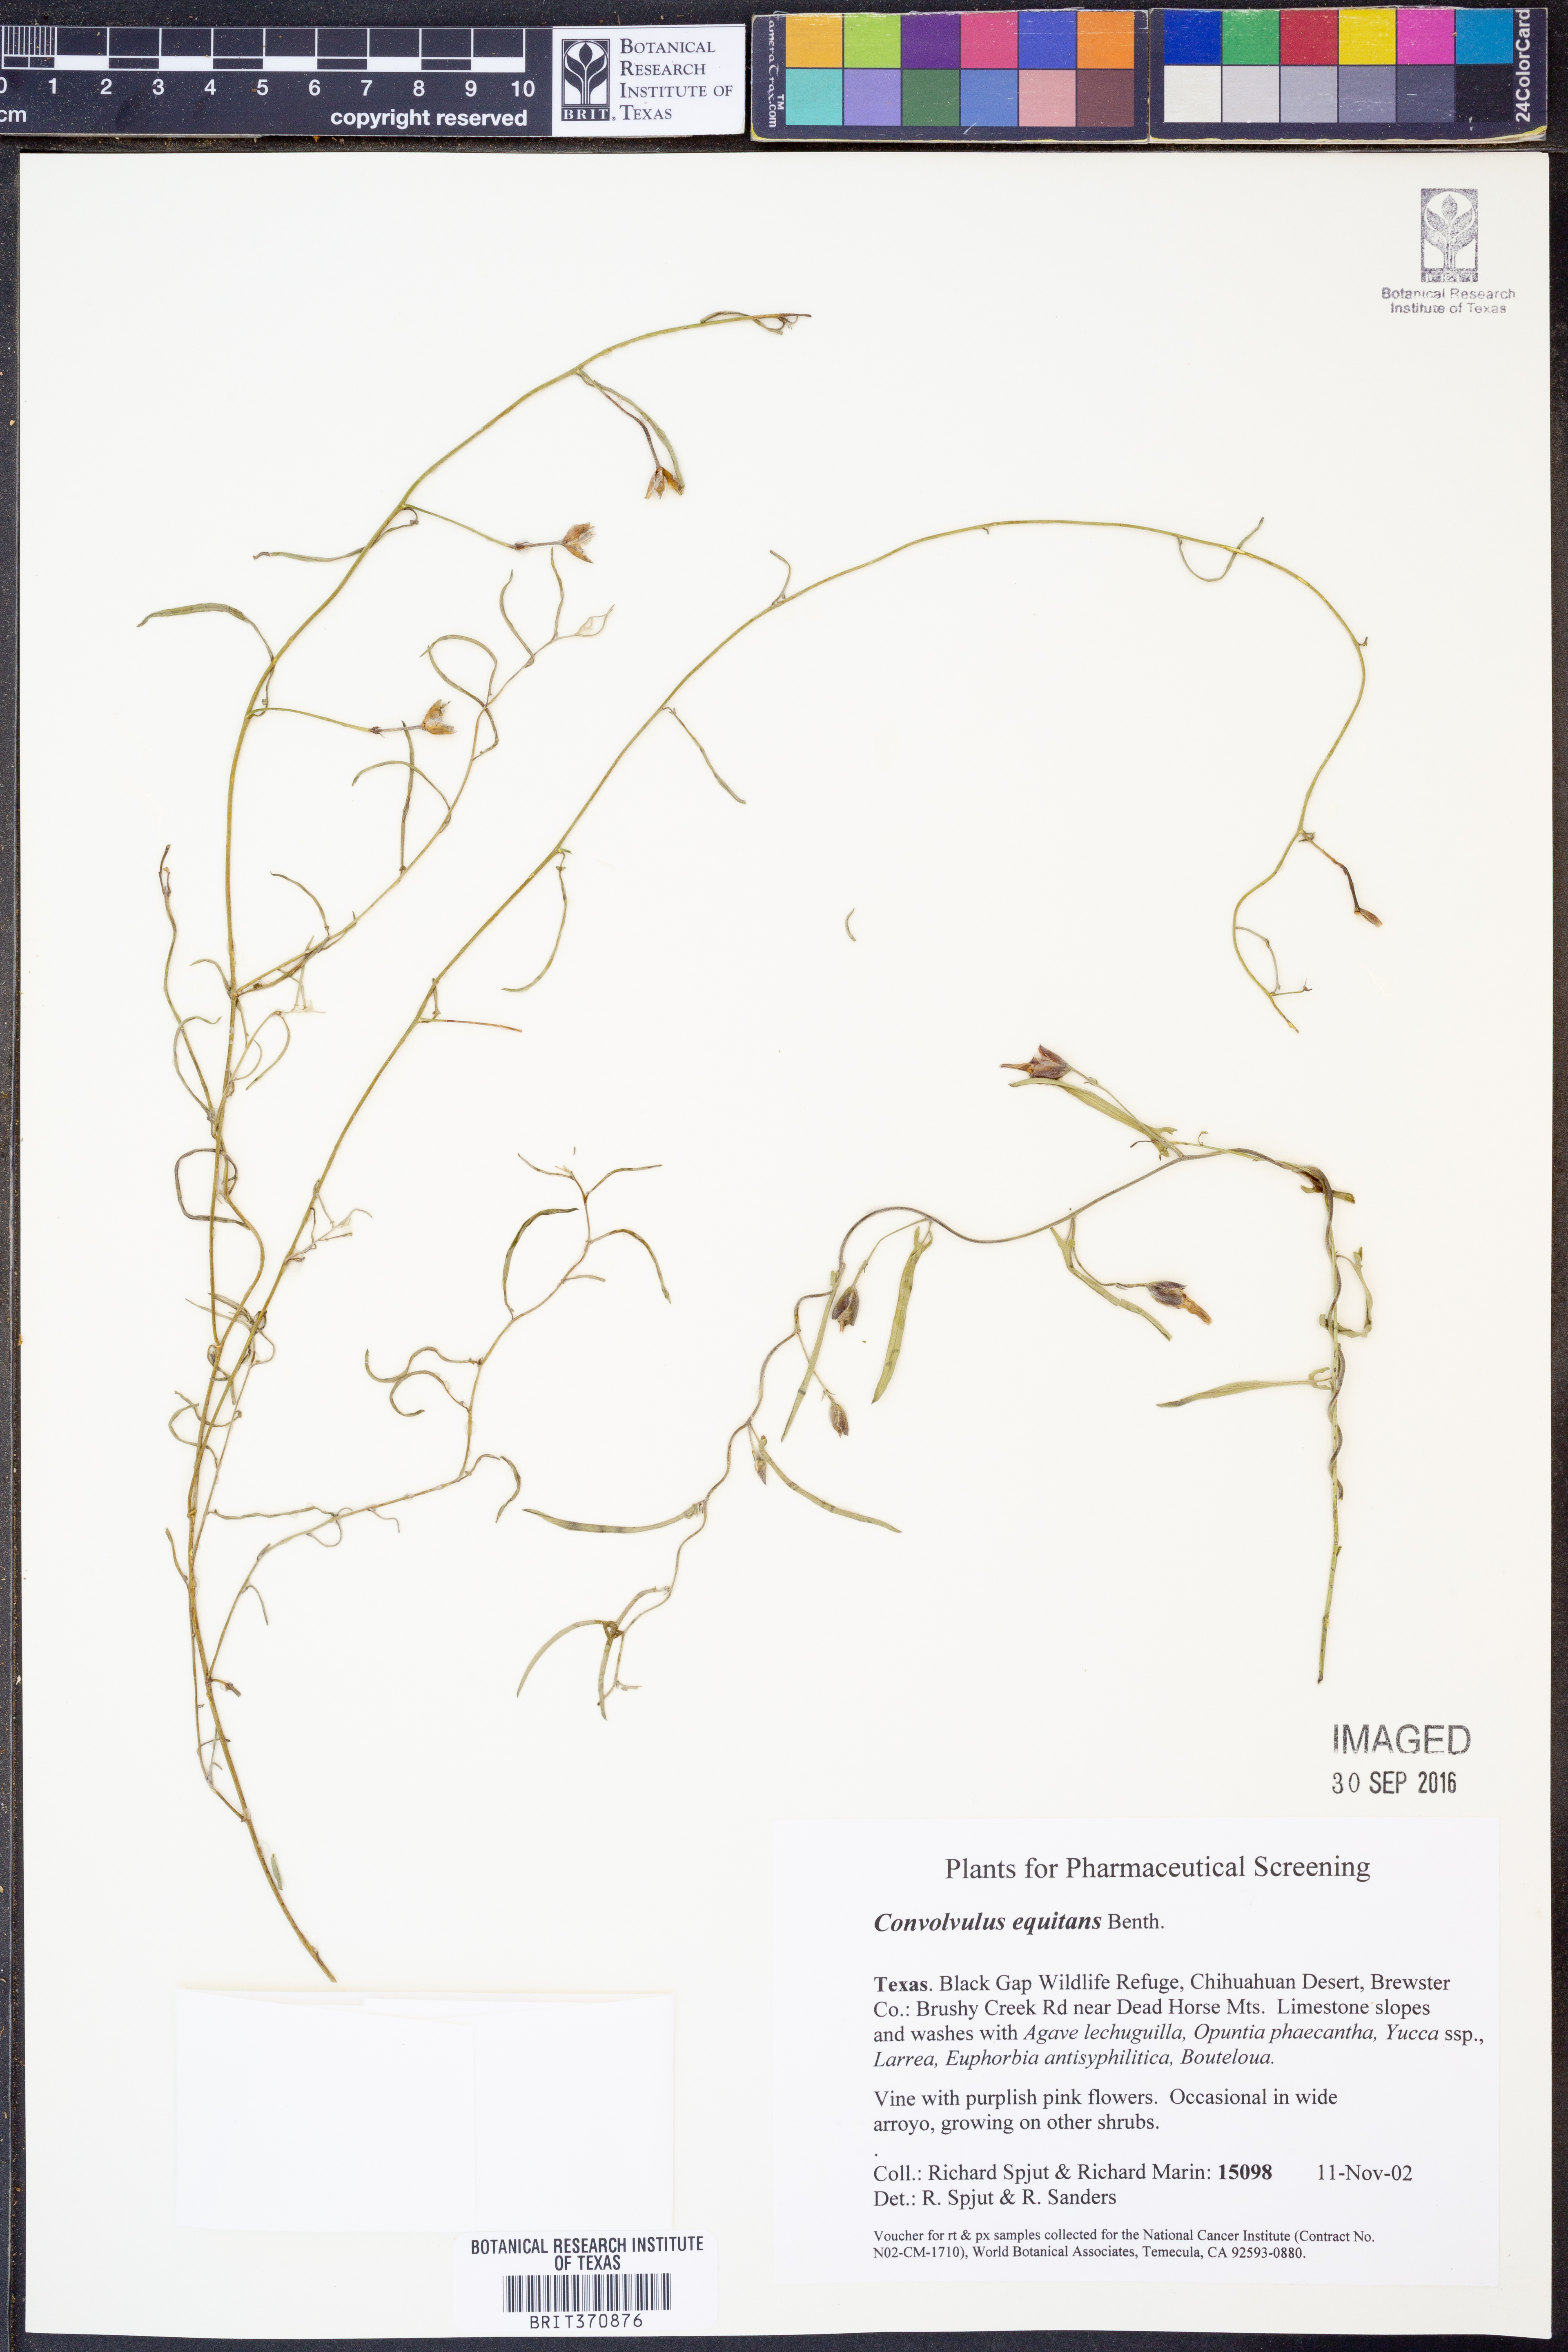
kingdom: Plantae
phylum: Tracheophyta
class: Magnoliopsida
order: Solanales
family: Convolvulaceae
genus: Convolvulus
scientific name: Convolvulus equitans
